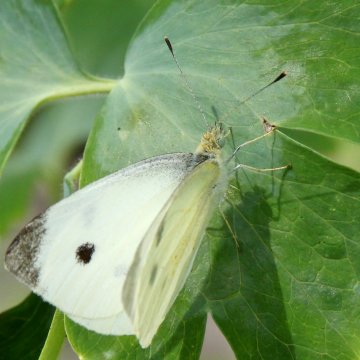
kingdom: Animalia
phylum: Arthropoda
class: Insecta
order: Lepidoptera
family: Pieridae
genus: Pieris
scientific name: Pieris rapae
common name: Cabbage White
